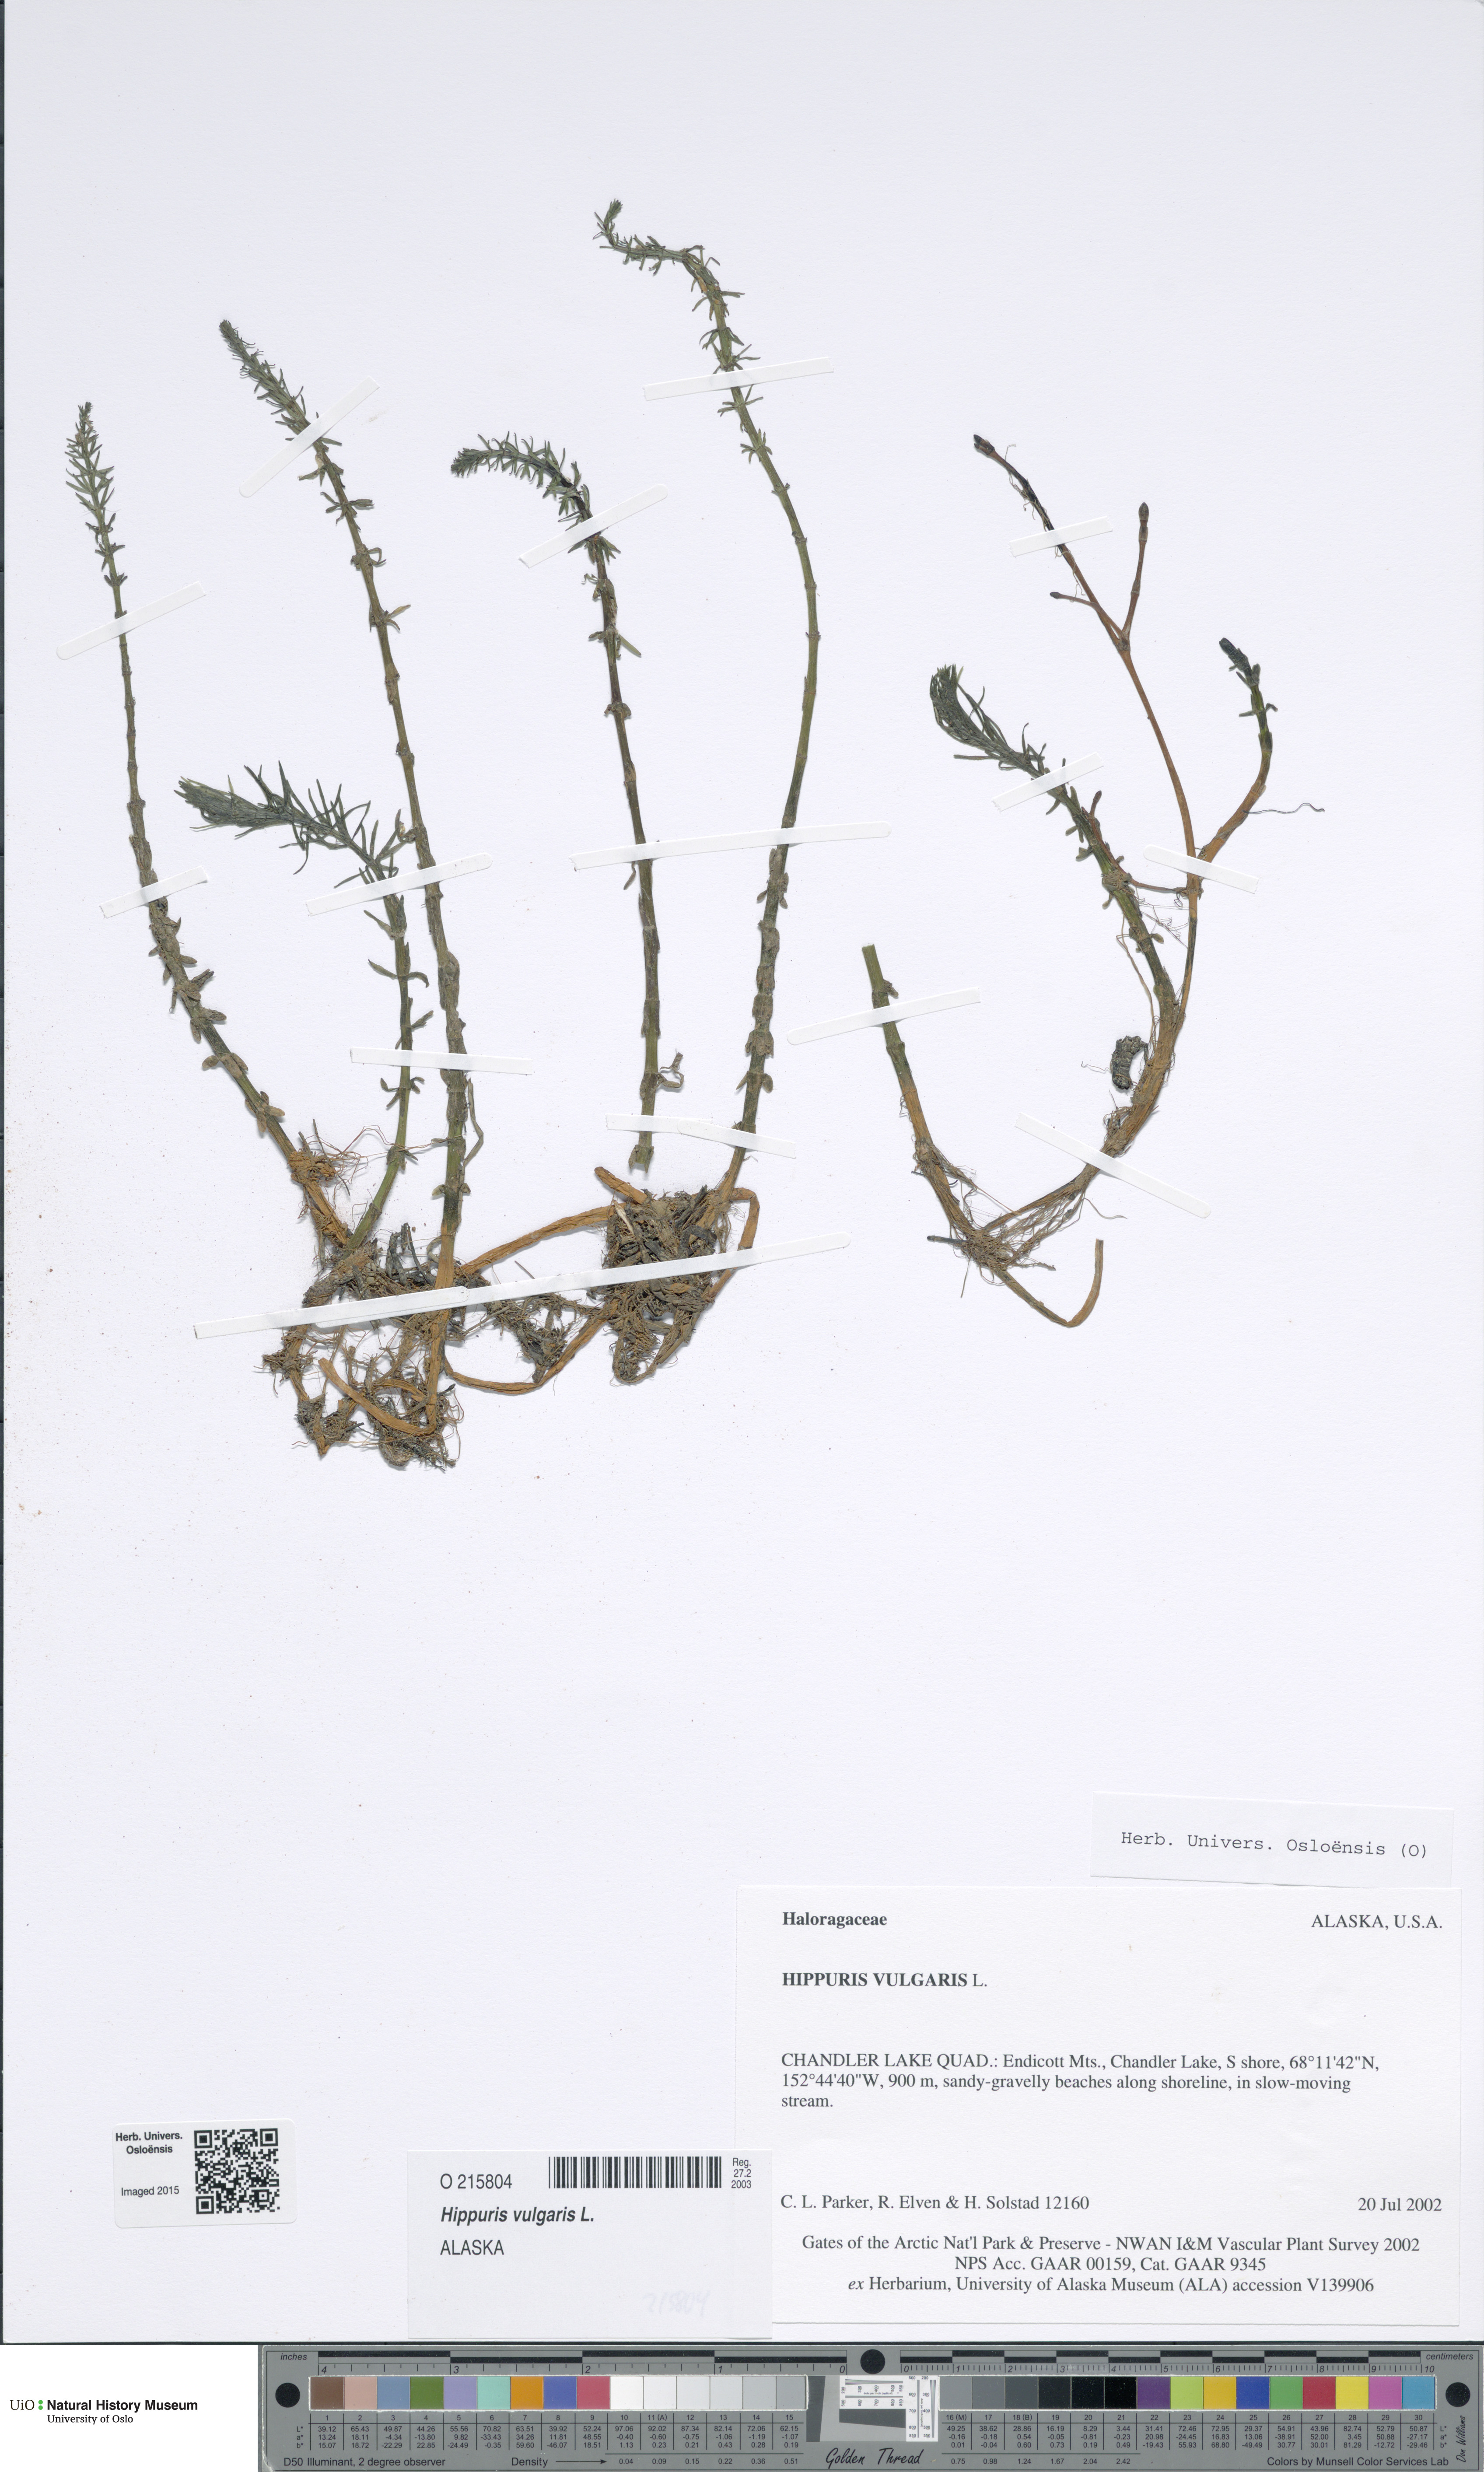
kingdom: Plantae
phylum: Tracheophyta
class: Magnoliopsida
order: Lamiales
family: Plantaginaceae
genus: Hippuris
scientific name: Hippuris vulgaris
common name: Mare's-tail
